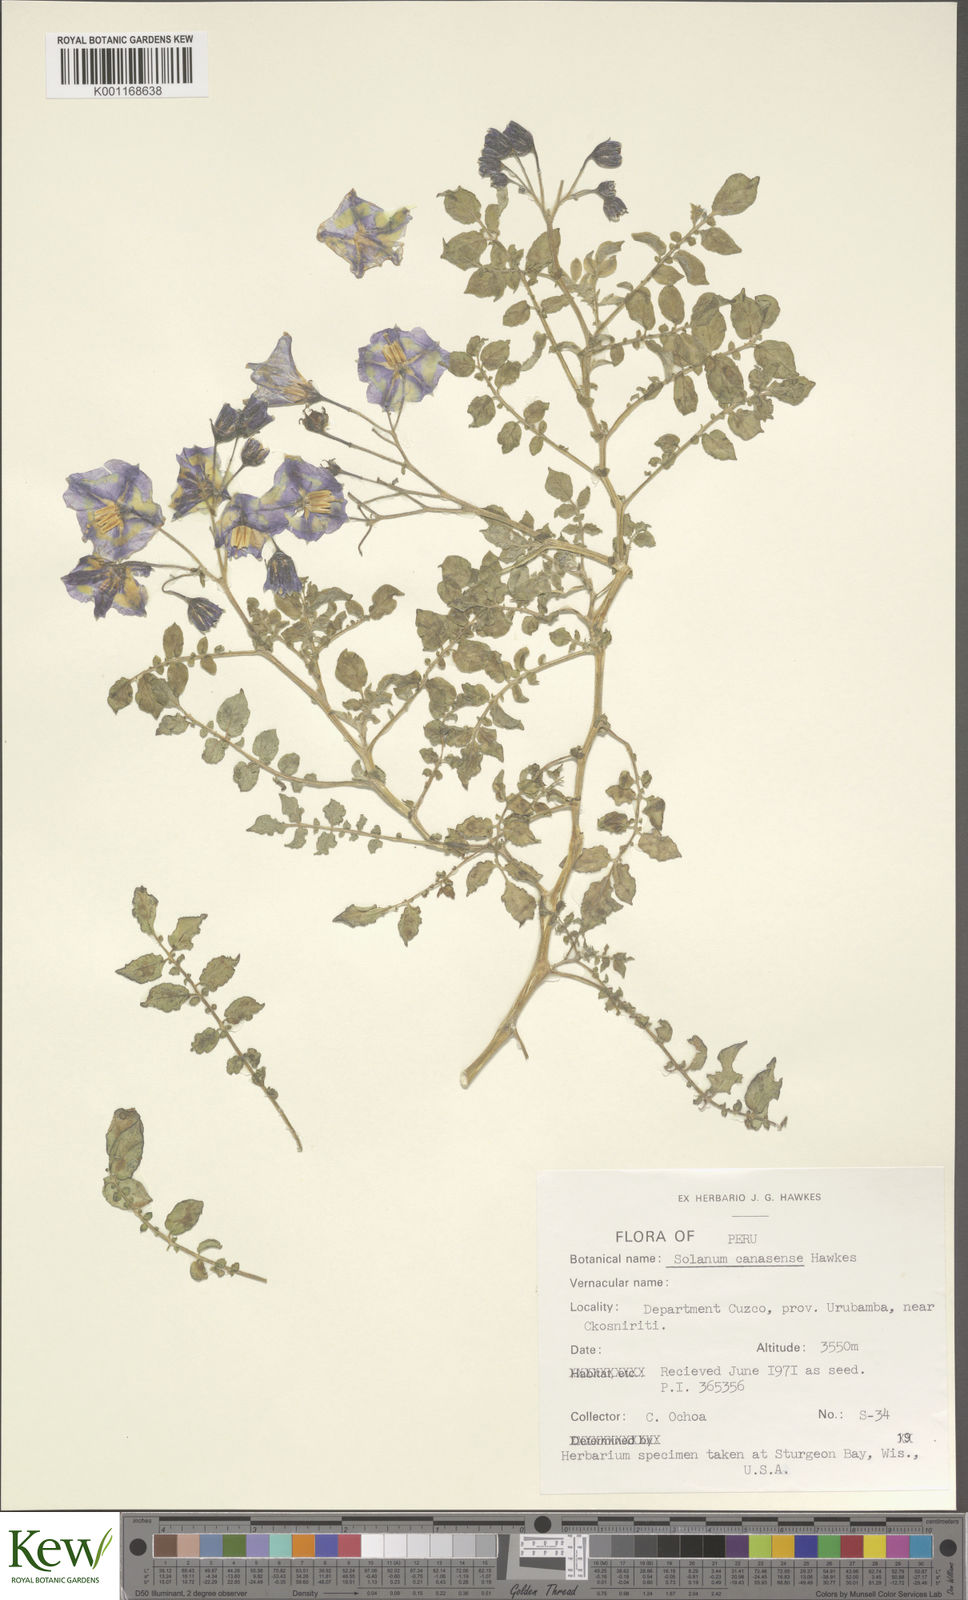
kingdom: Plantae
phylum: Tracheophyta
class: Magnoliopsida
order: Solanales
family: Solanaceae
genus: Solanum
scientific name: Solanum candolleanum
